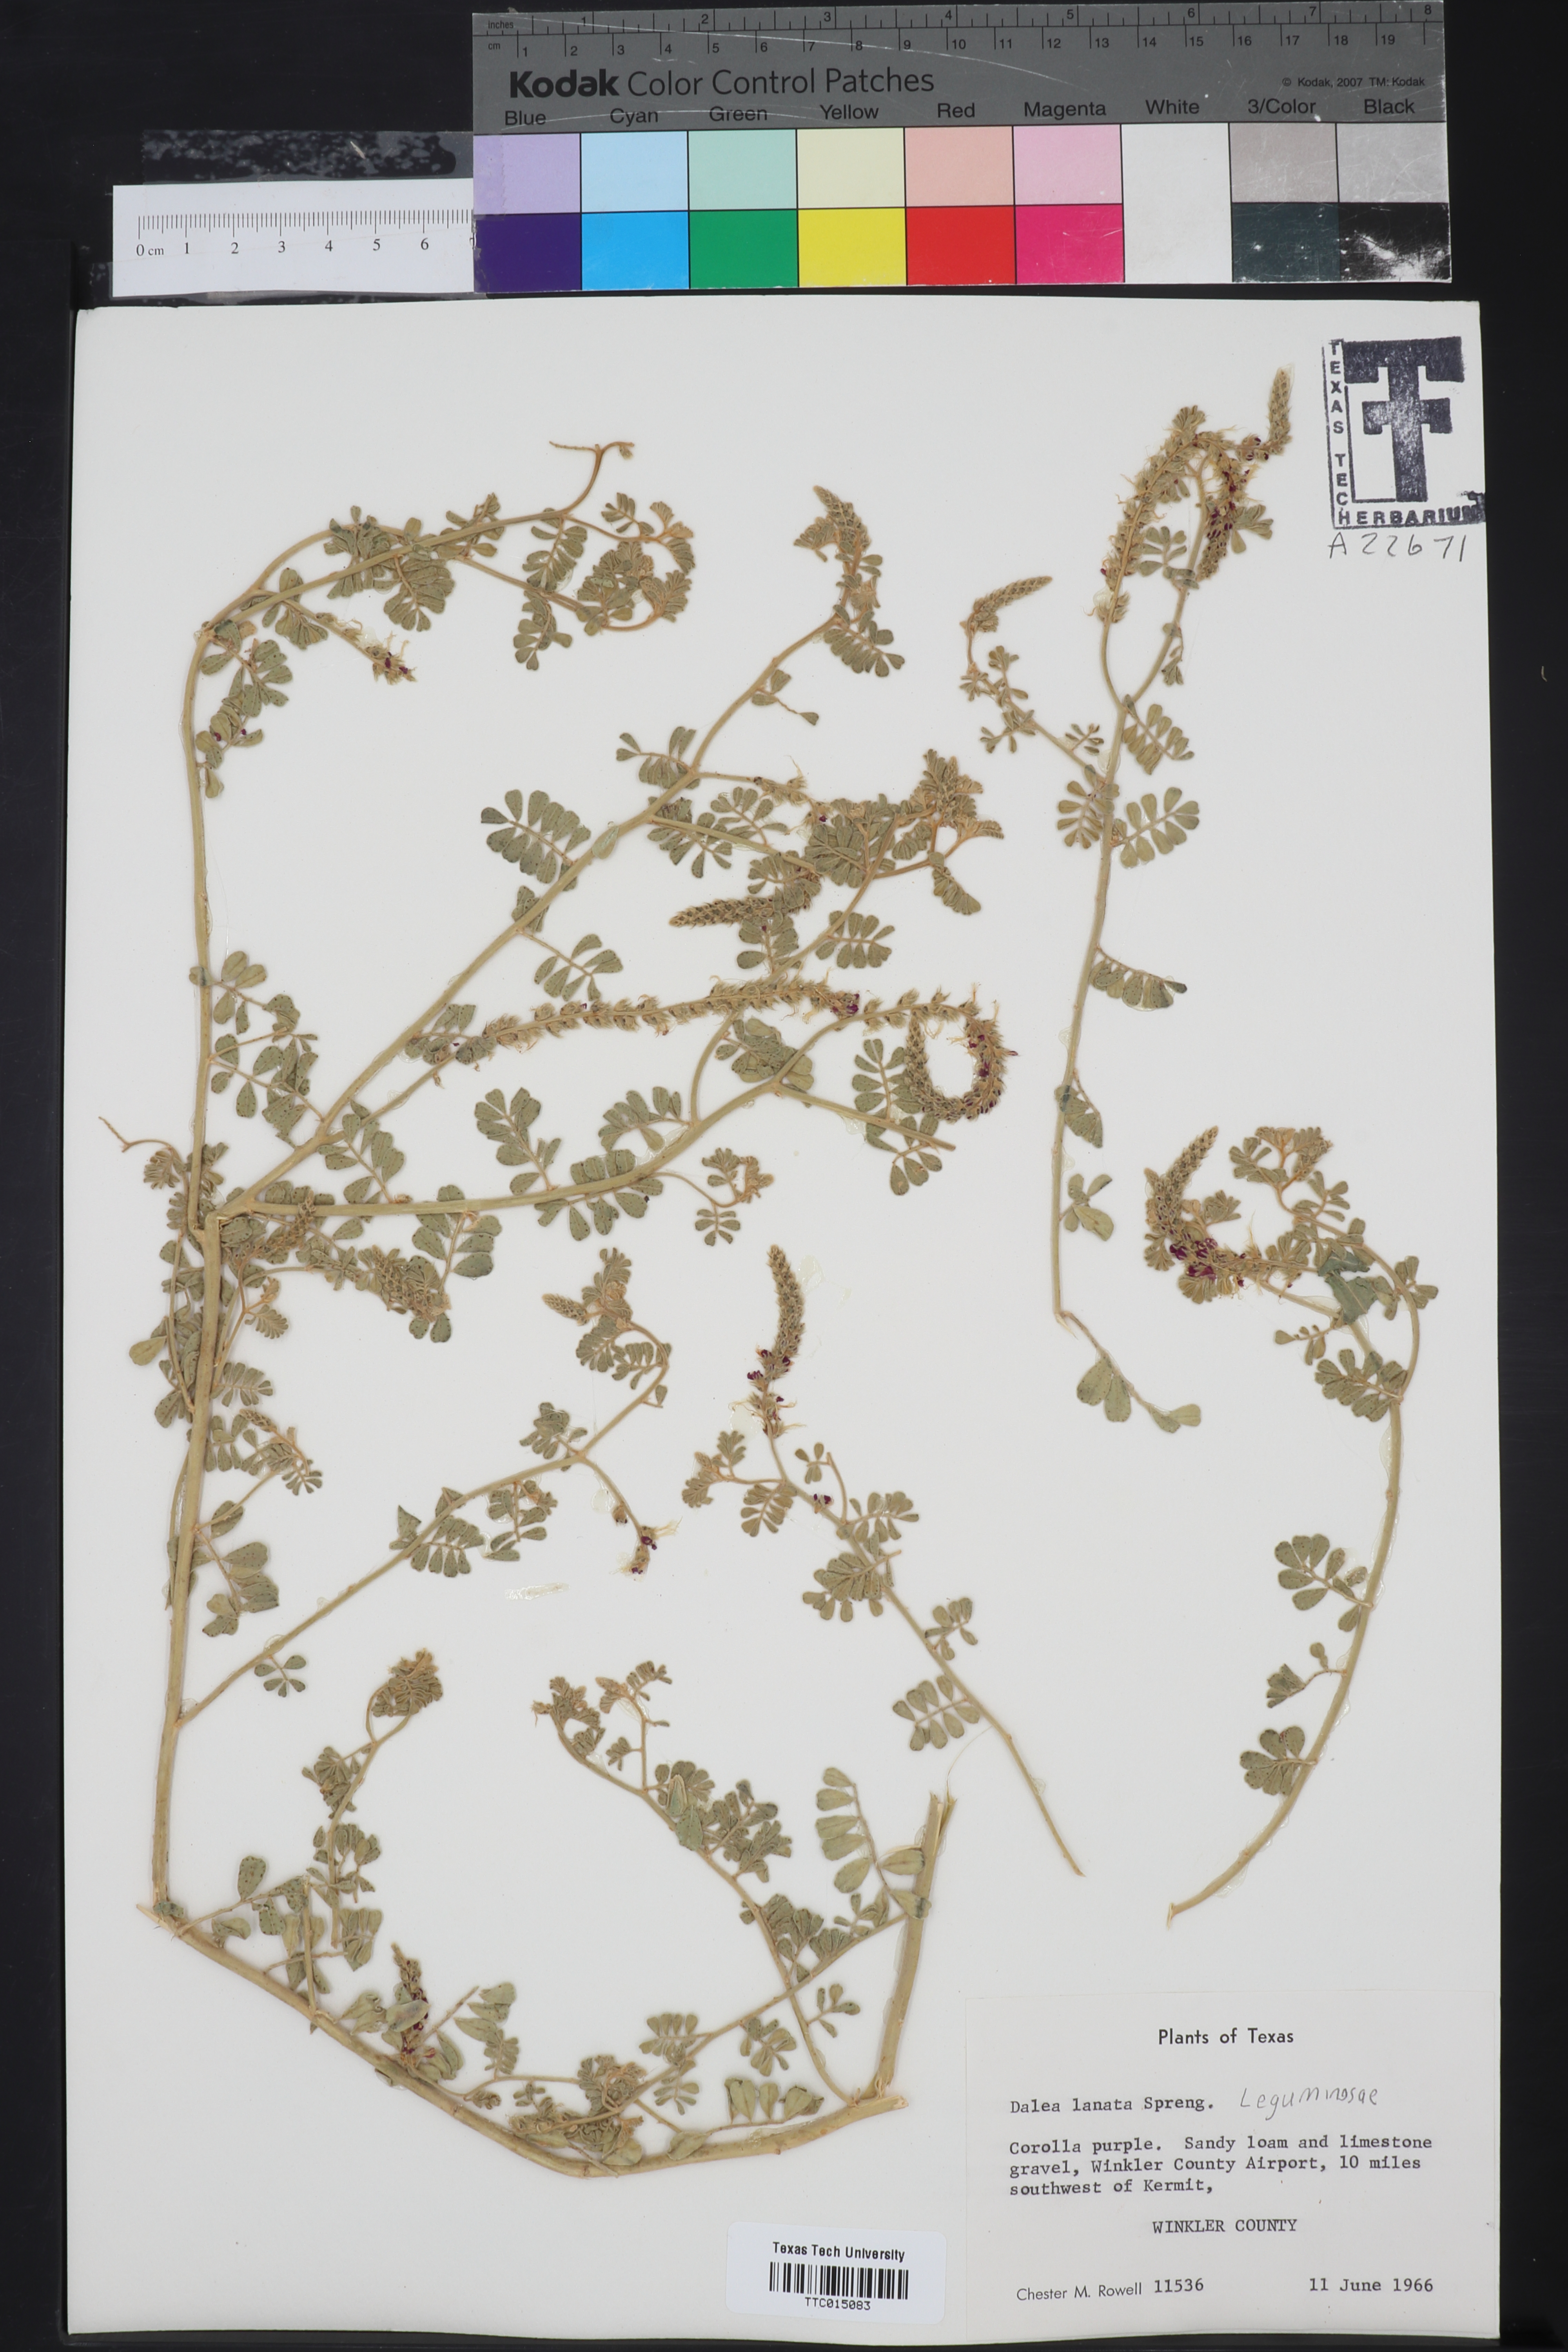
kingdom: Plantae
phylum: Tracheophyta
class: Magnoliopsida
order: Fabales
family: Fabaceae
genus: Dalea
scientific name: Dalea lanata
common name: Woolly dalea
